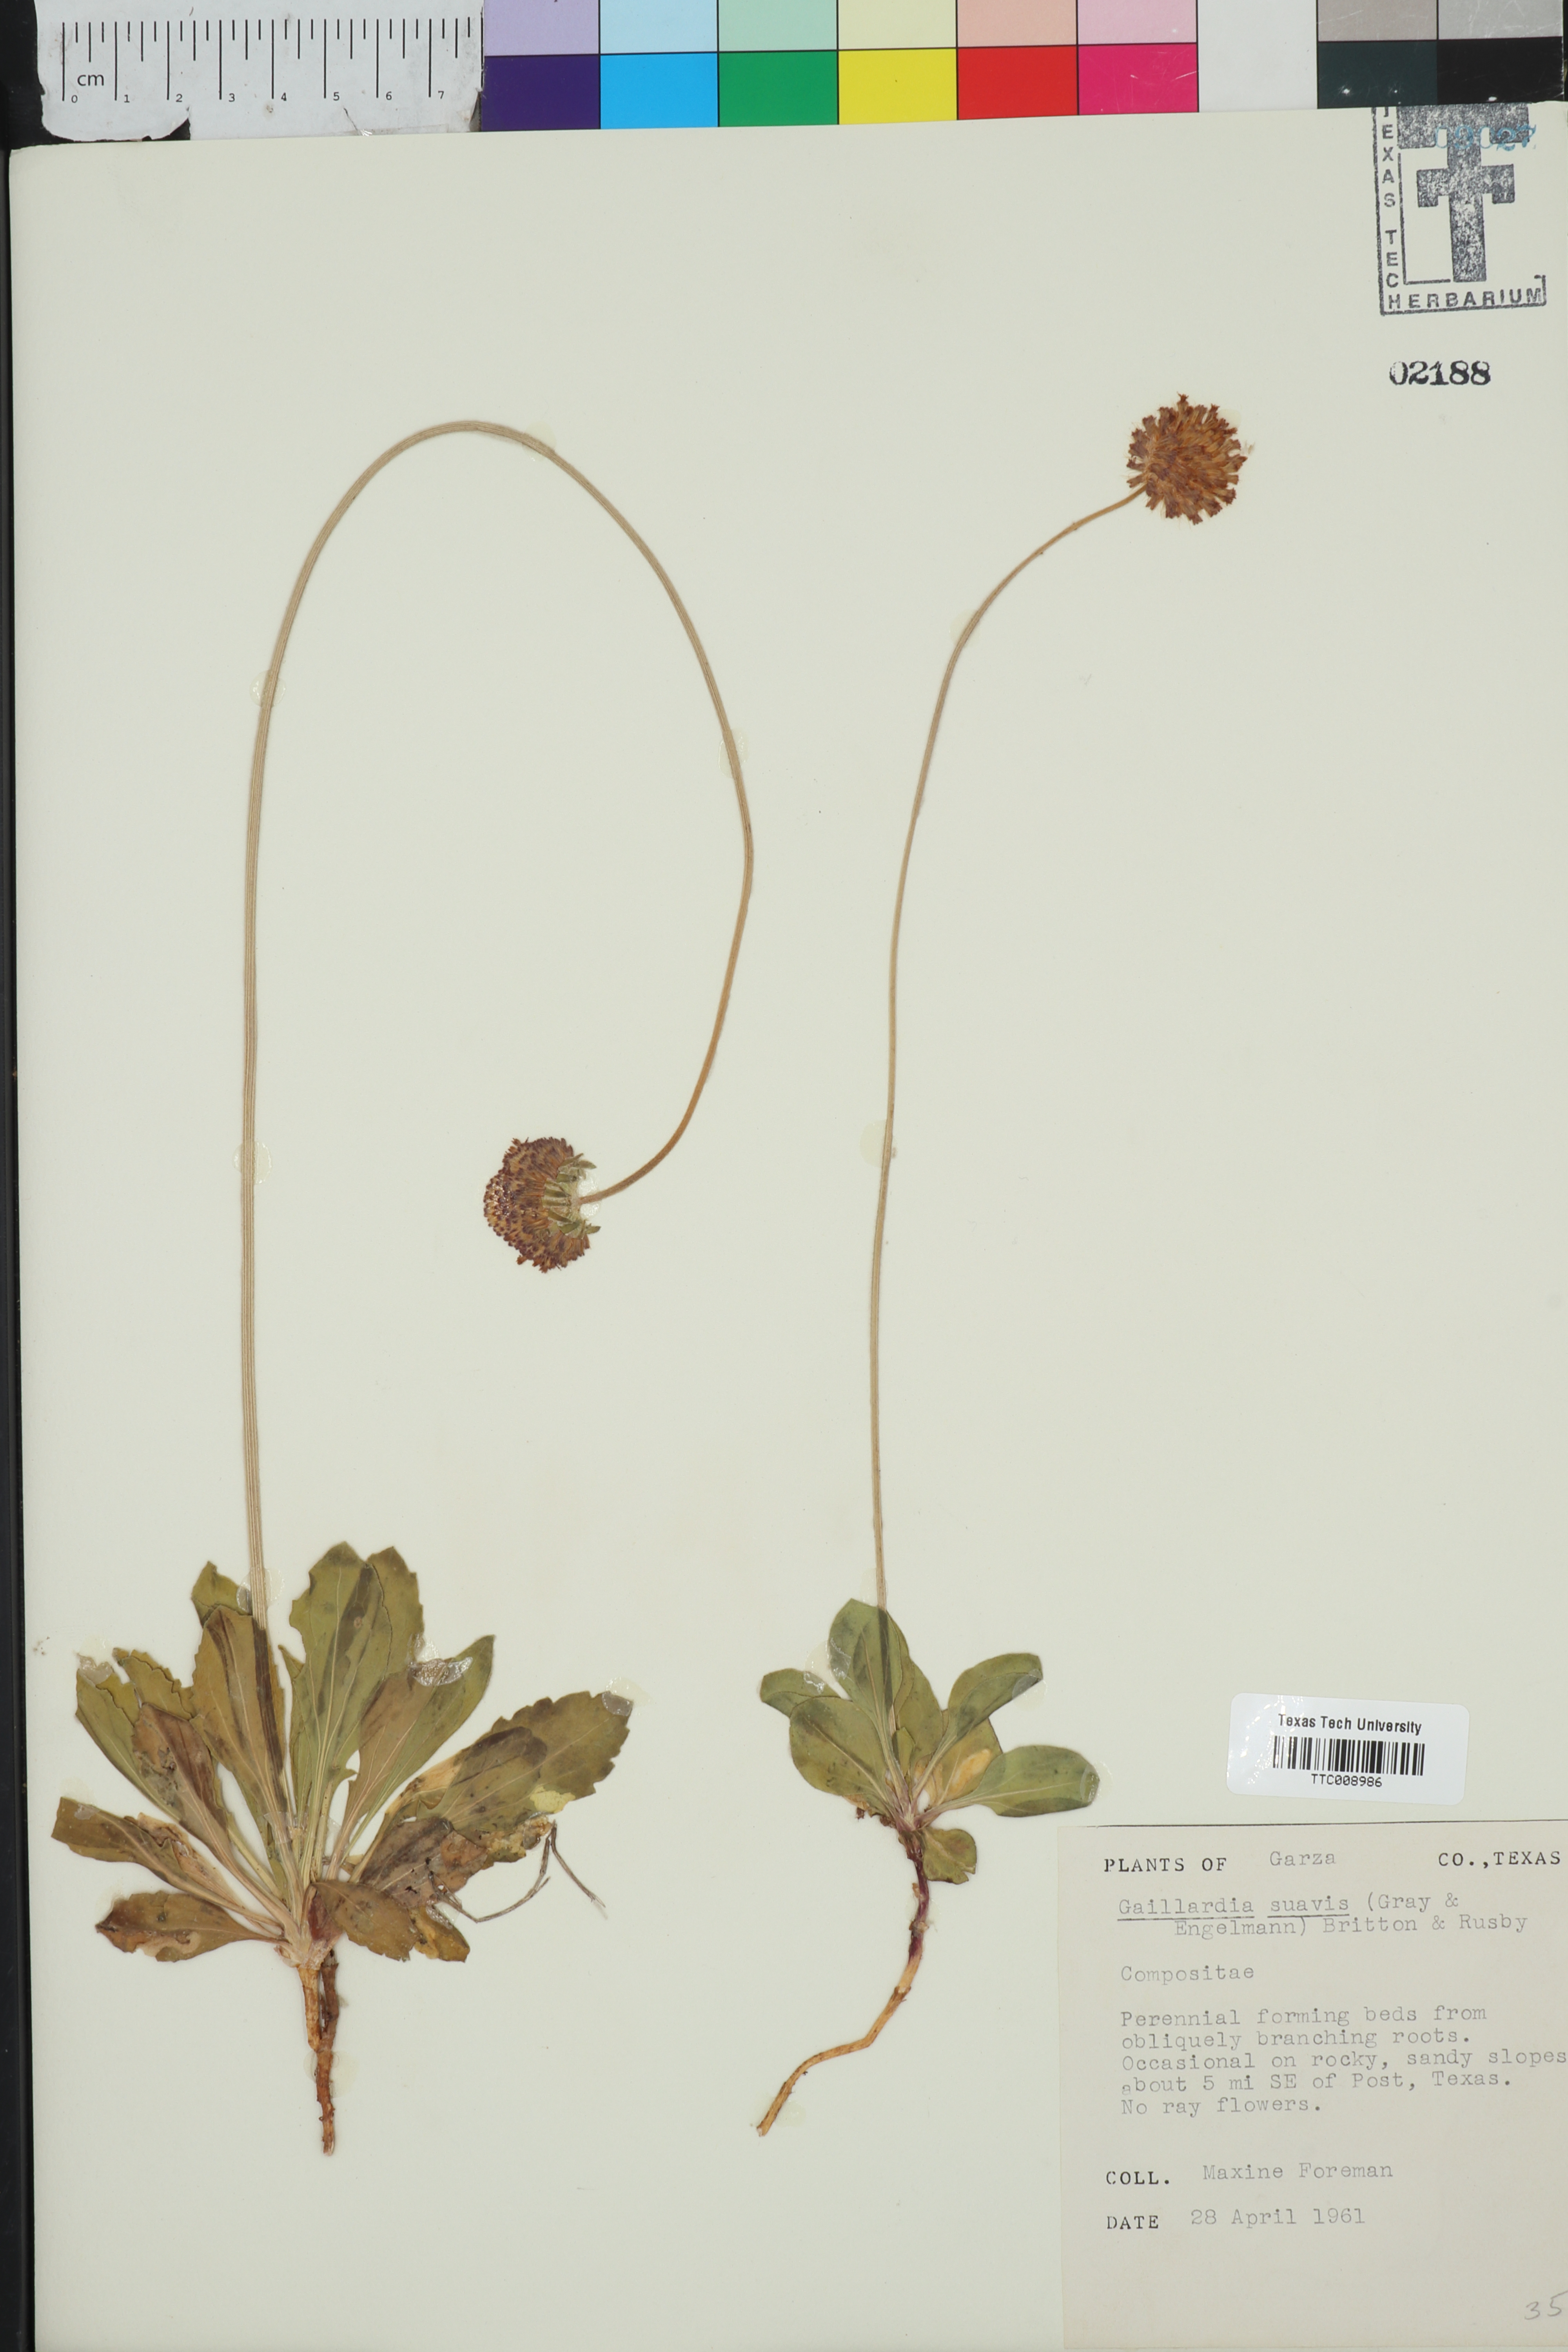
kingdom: Plantae
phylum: Tracheophyta
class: Magnoliopsida
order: Asterales
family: Asteraceae
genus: Gaillardia
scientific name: Gaillardia suavis
